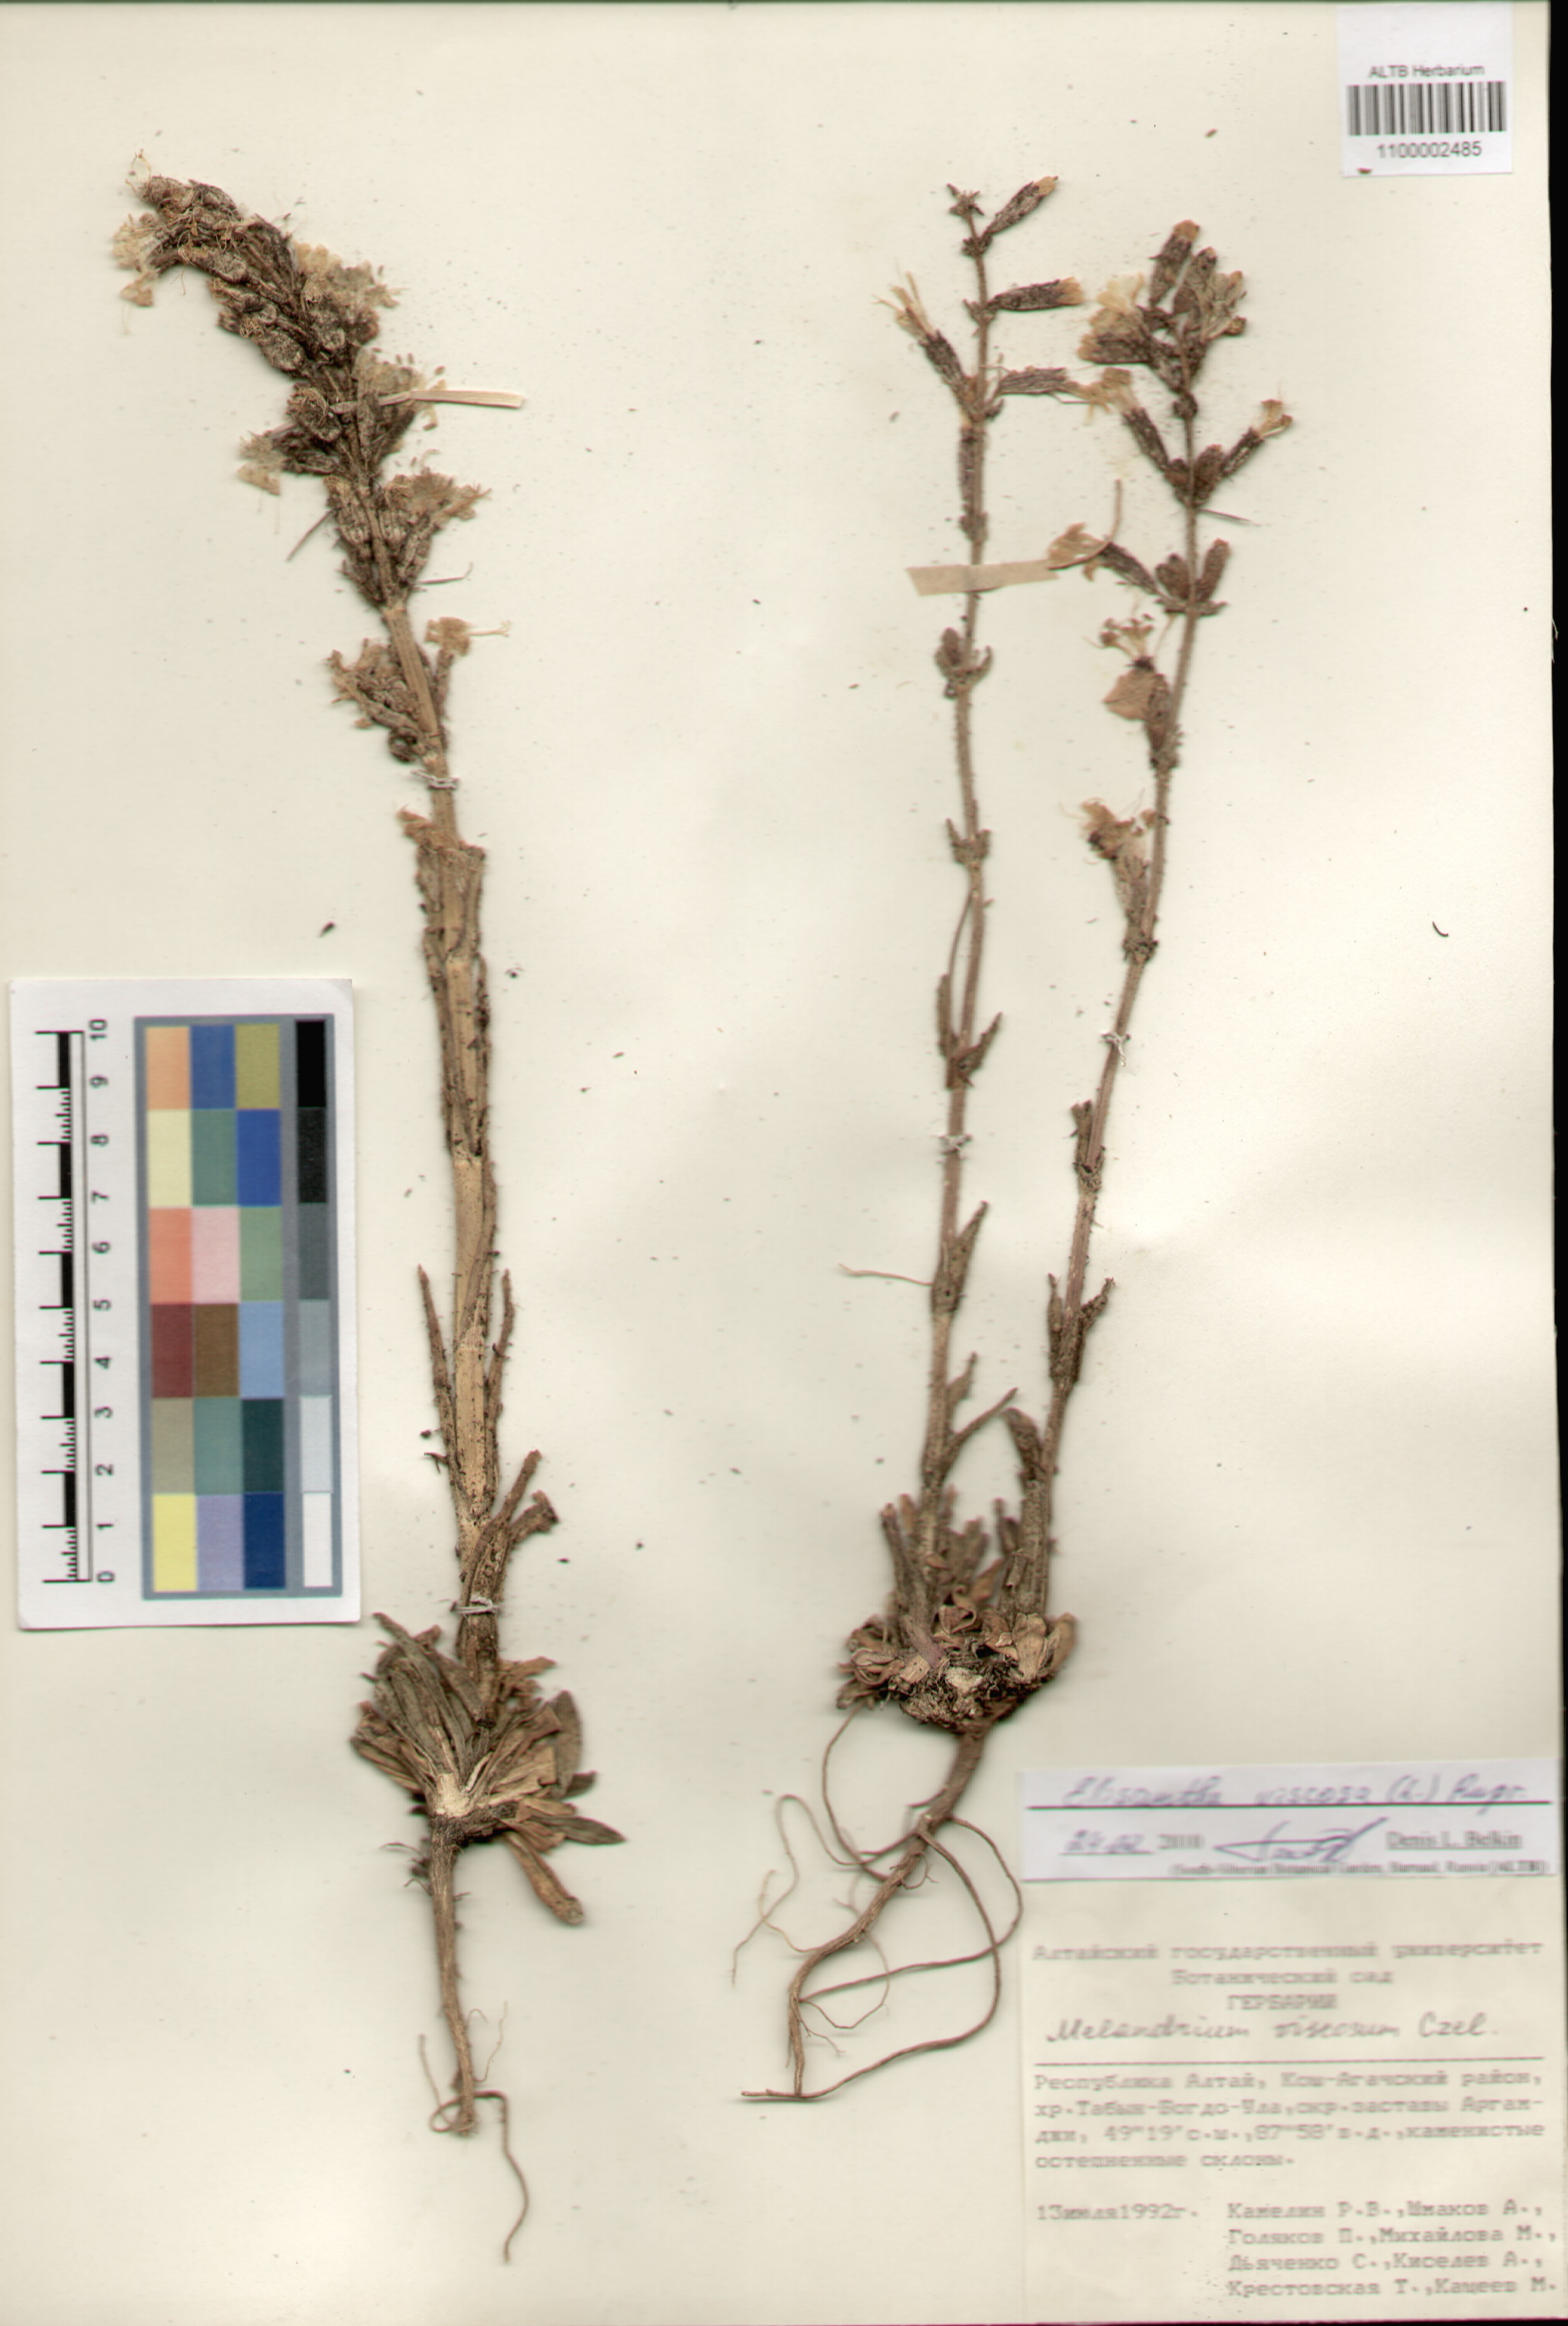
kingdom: Plantae
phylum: Tracheophyta
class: Magnoliopsida
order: Caryophyllales
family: Caryophyllaceae
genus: Silene
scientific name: Silene viscosa
